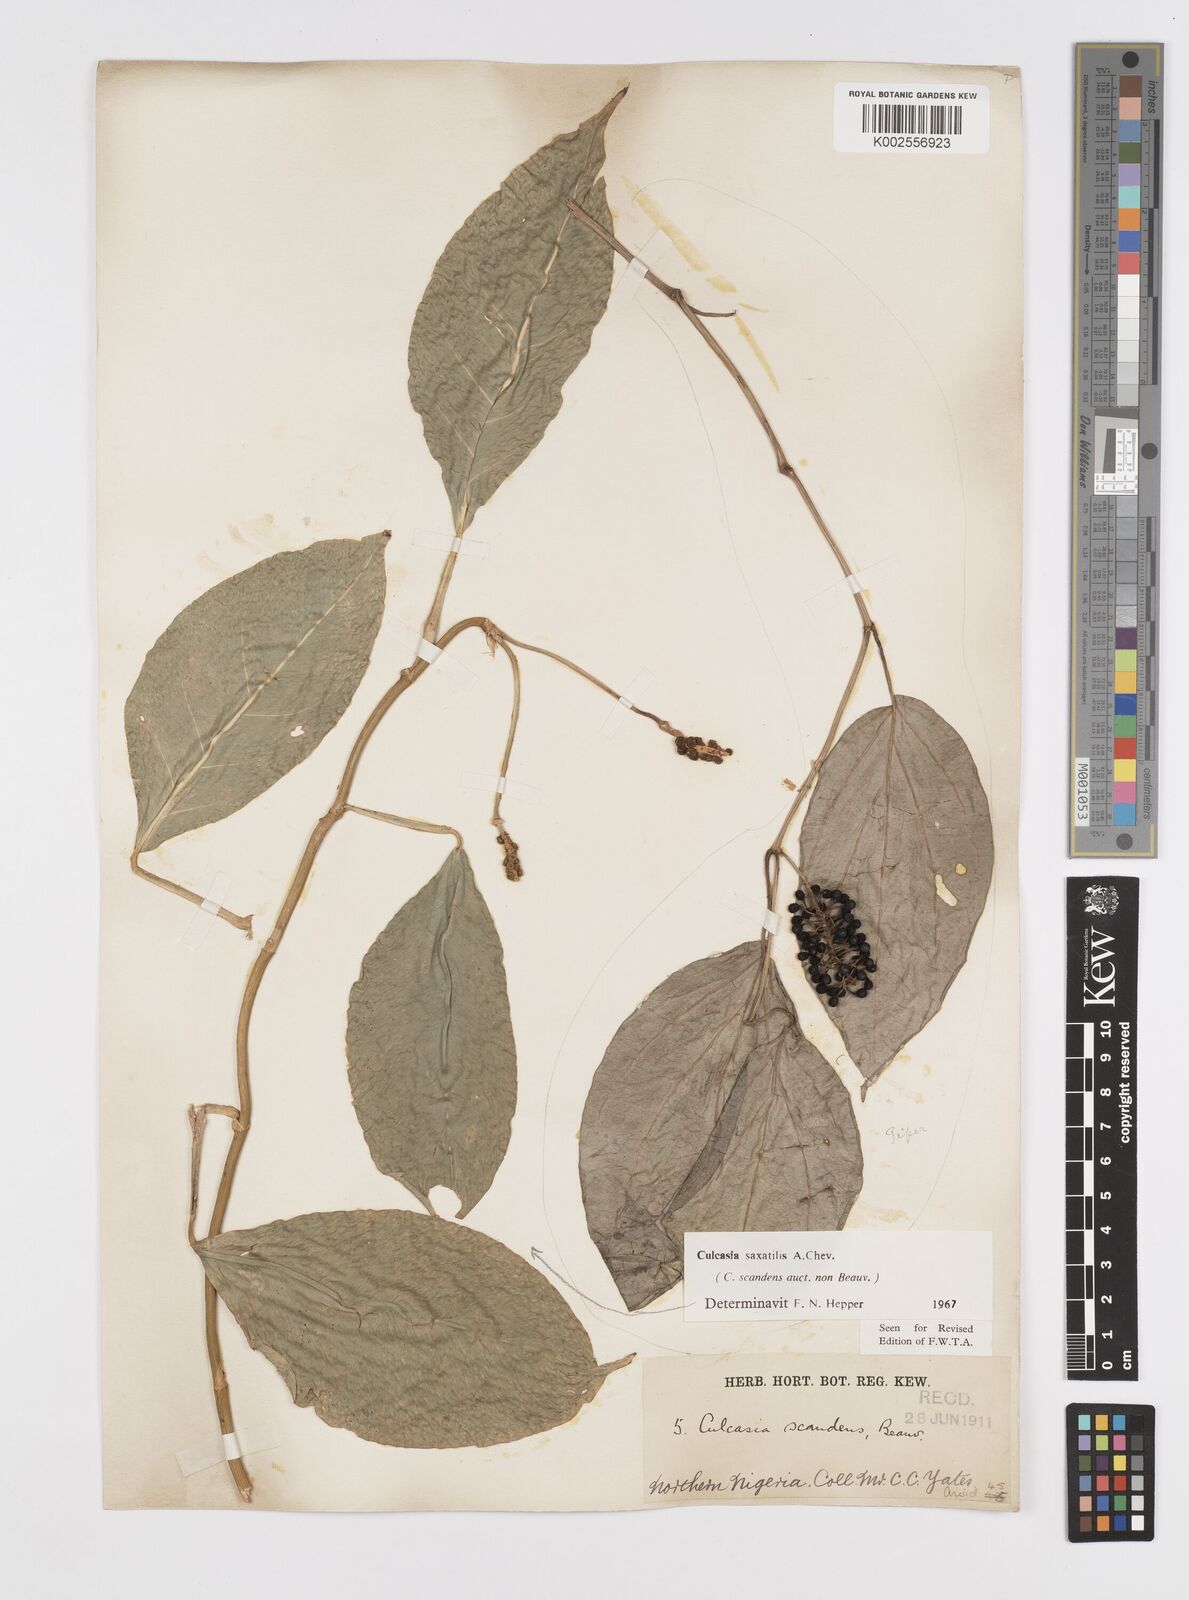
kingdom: Plantae
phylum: Tracheophyta
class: Liliopsida
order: Alismatales
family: Araceae
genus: Culcasia
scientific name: Culcasia scandens
